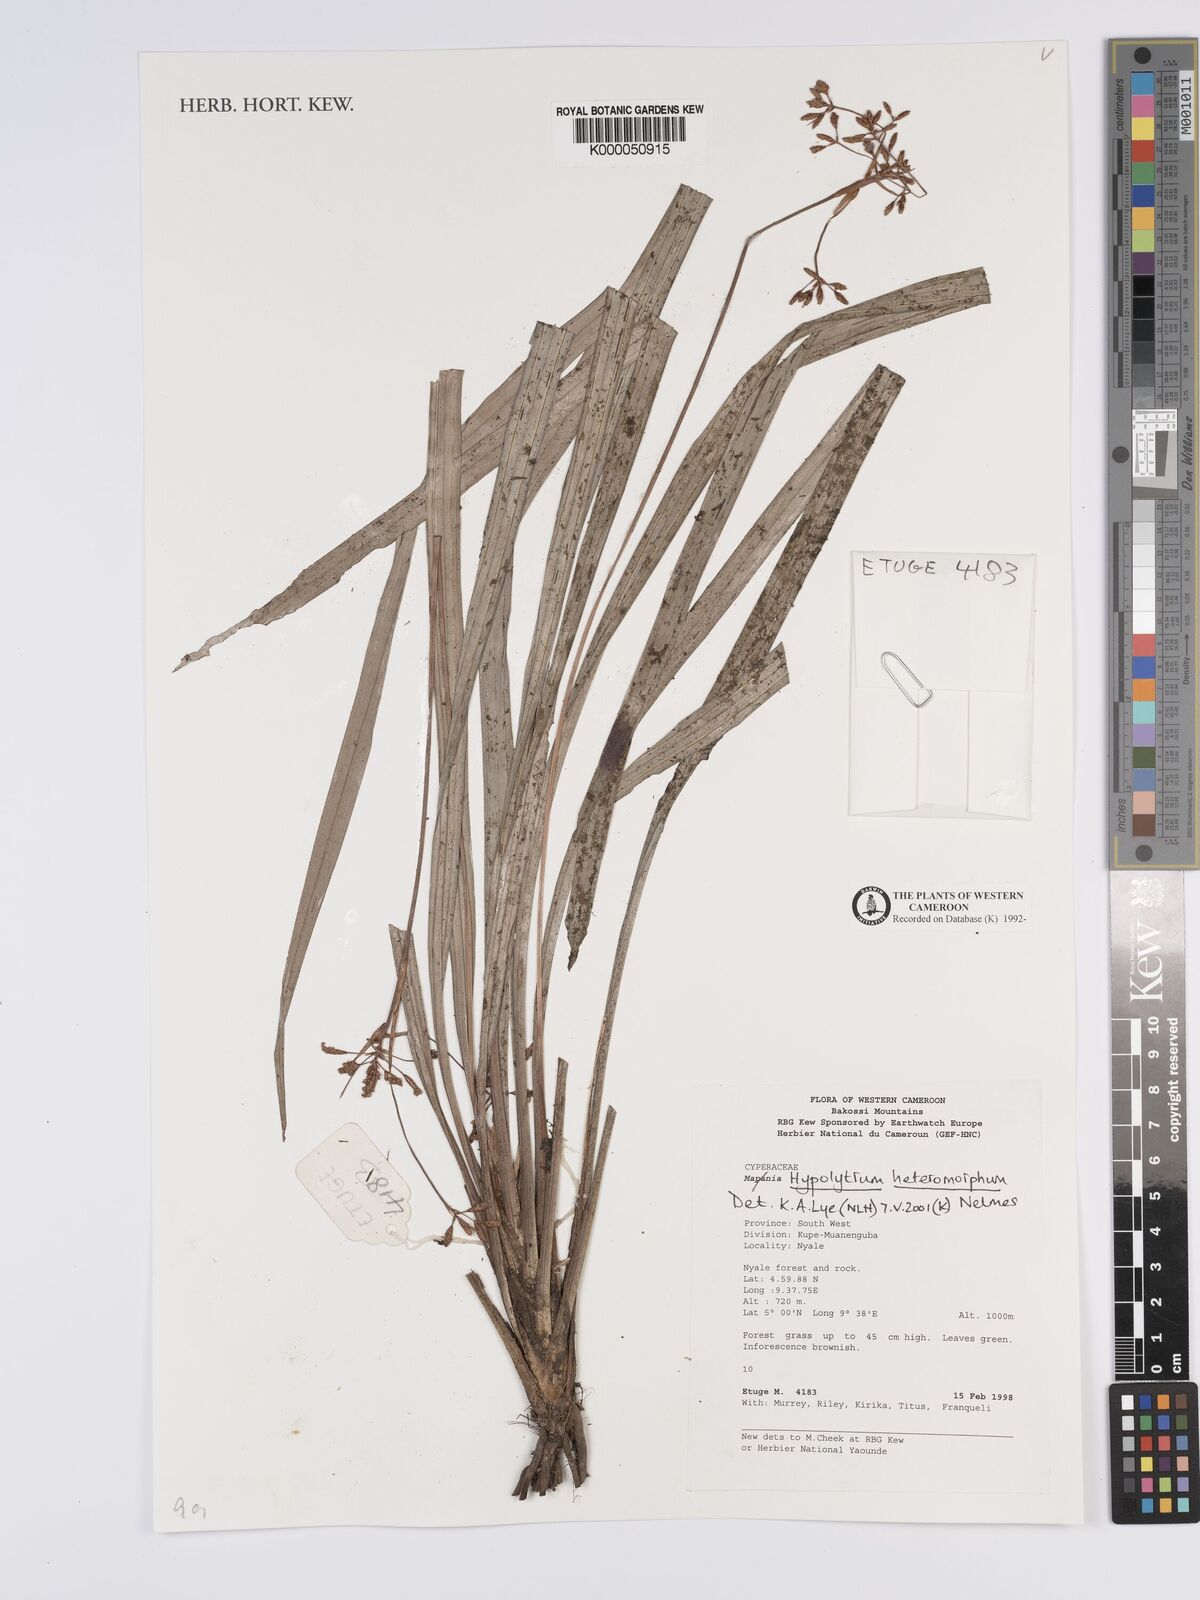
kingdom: Plantae
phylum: Tracheophyta
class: Liliopsida
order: Poales
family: Cyperaceae
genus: Hypolytrum
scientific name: Hypolytrum heteromorphum
